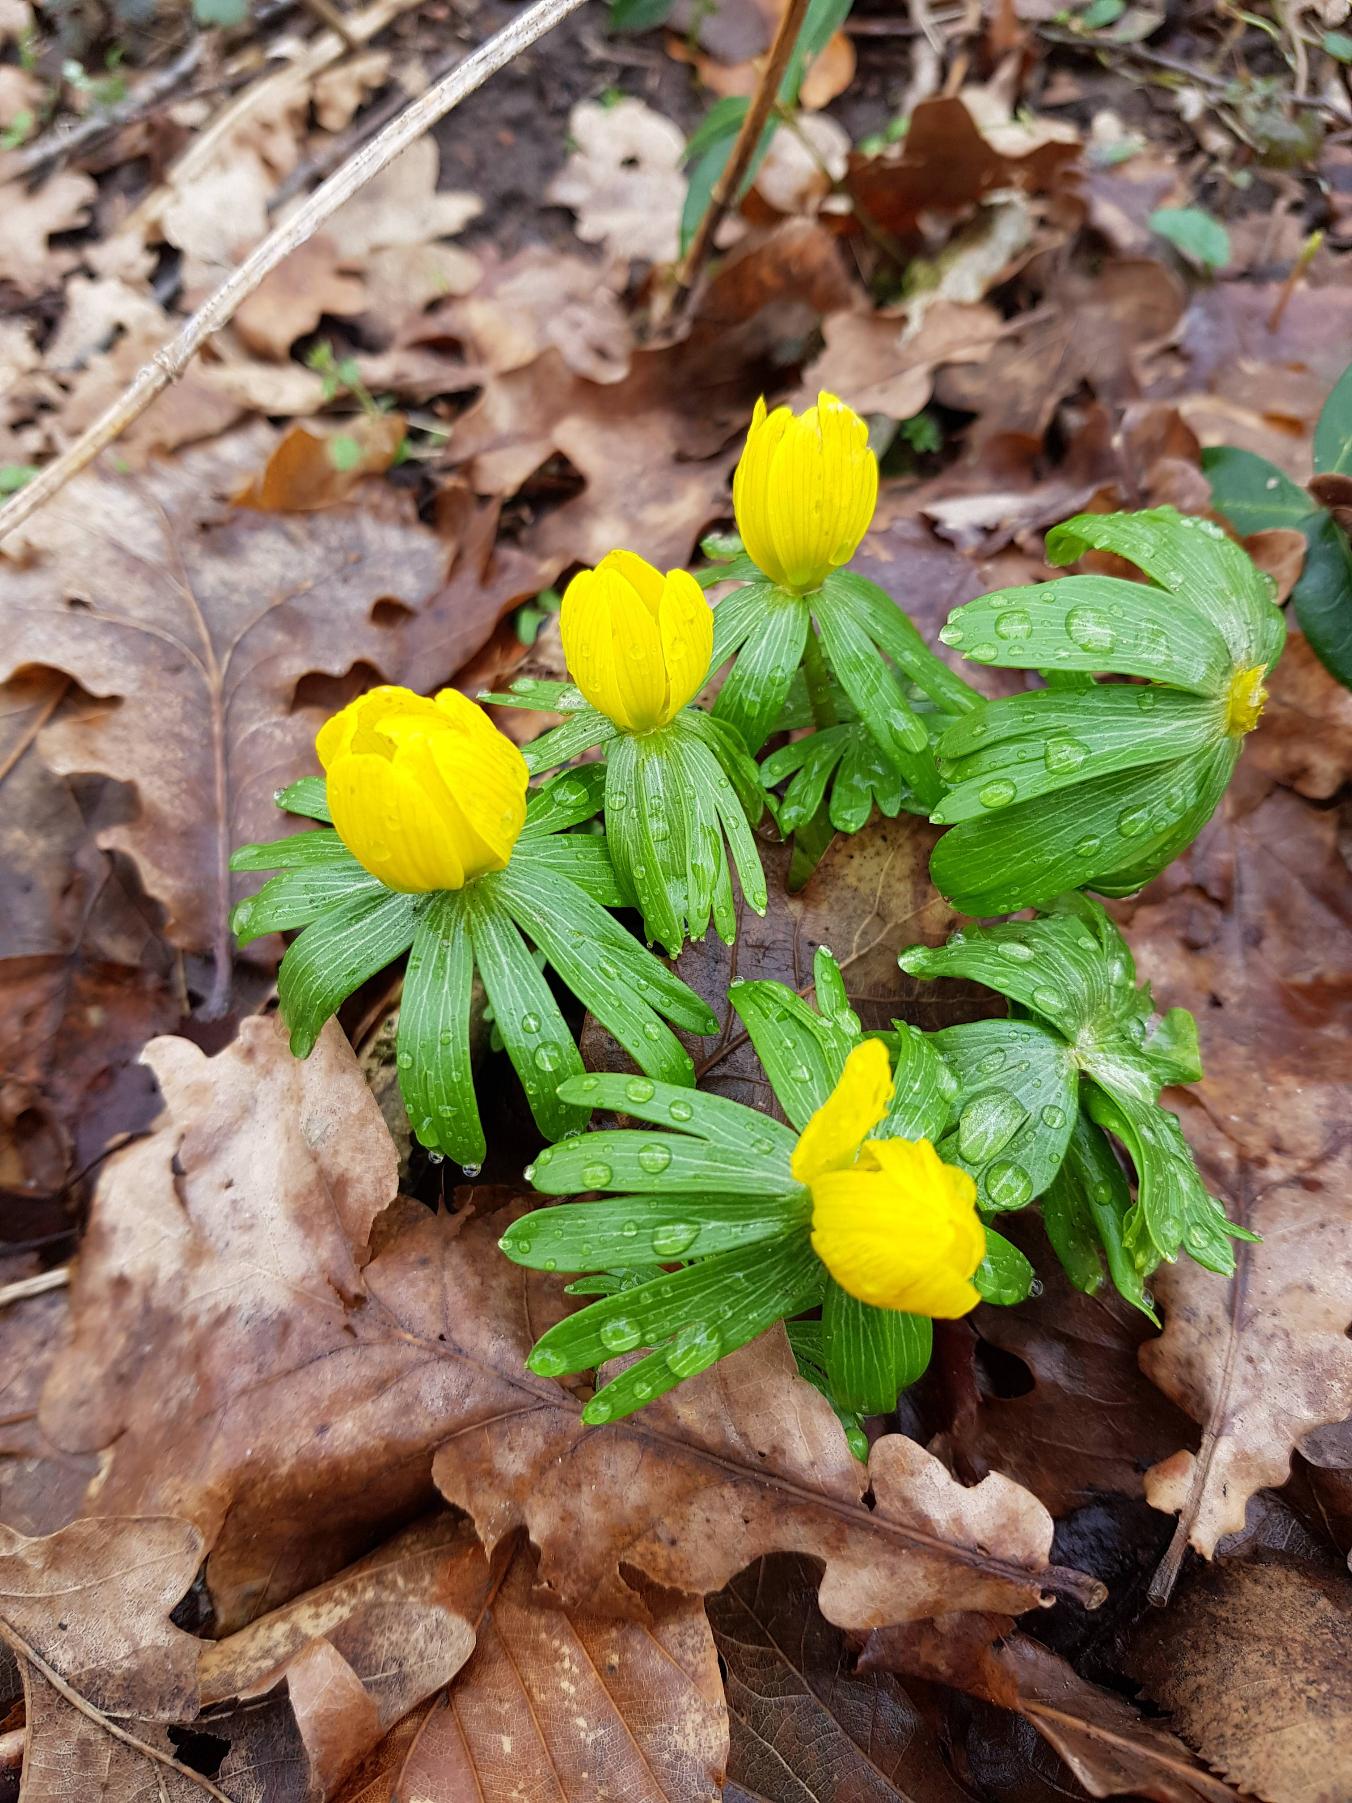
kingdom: Plantae
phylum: Tracheophyta
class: Magnoliopsida
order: Ranunculales
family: Ranunculaceae
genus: Eranthis
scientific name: Eranthis hyemalis
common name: Erantis
